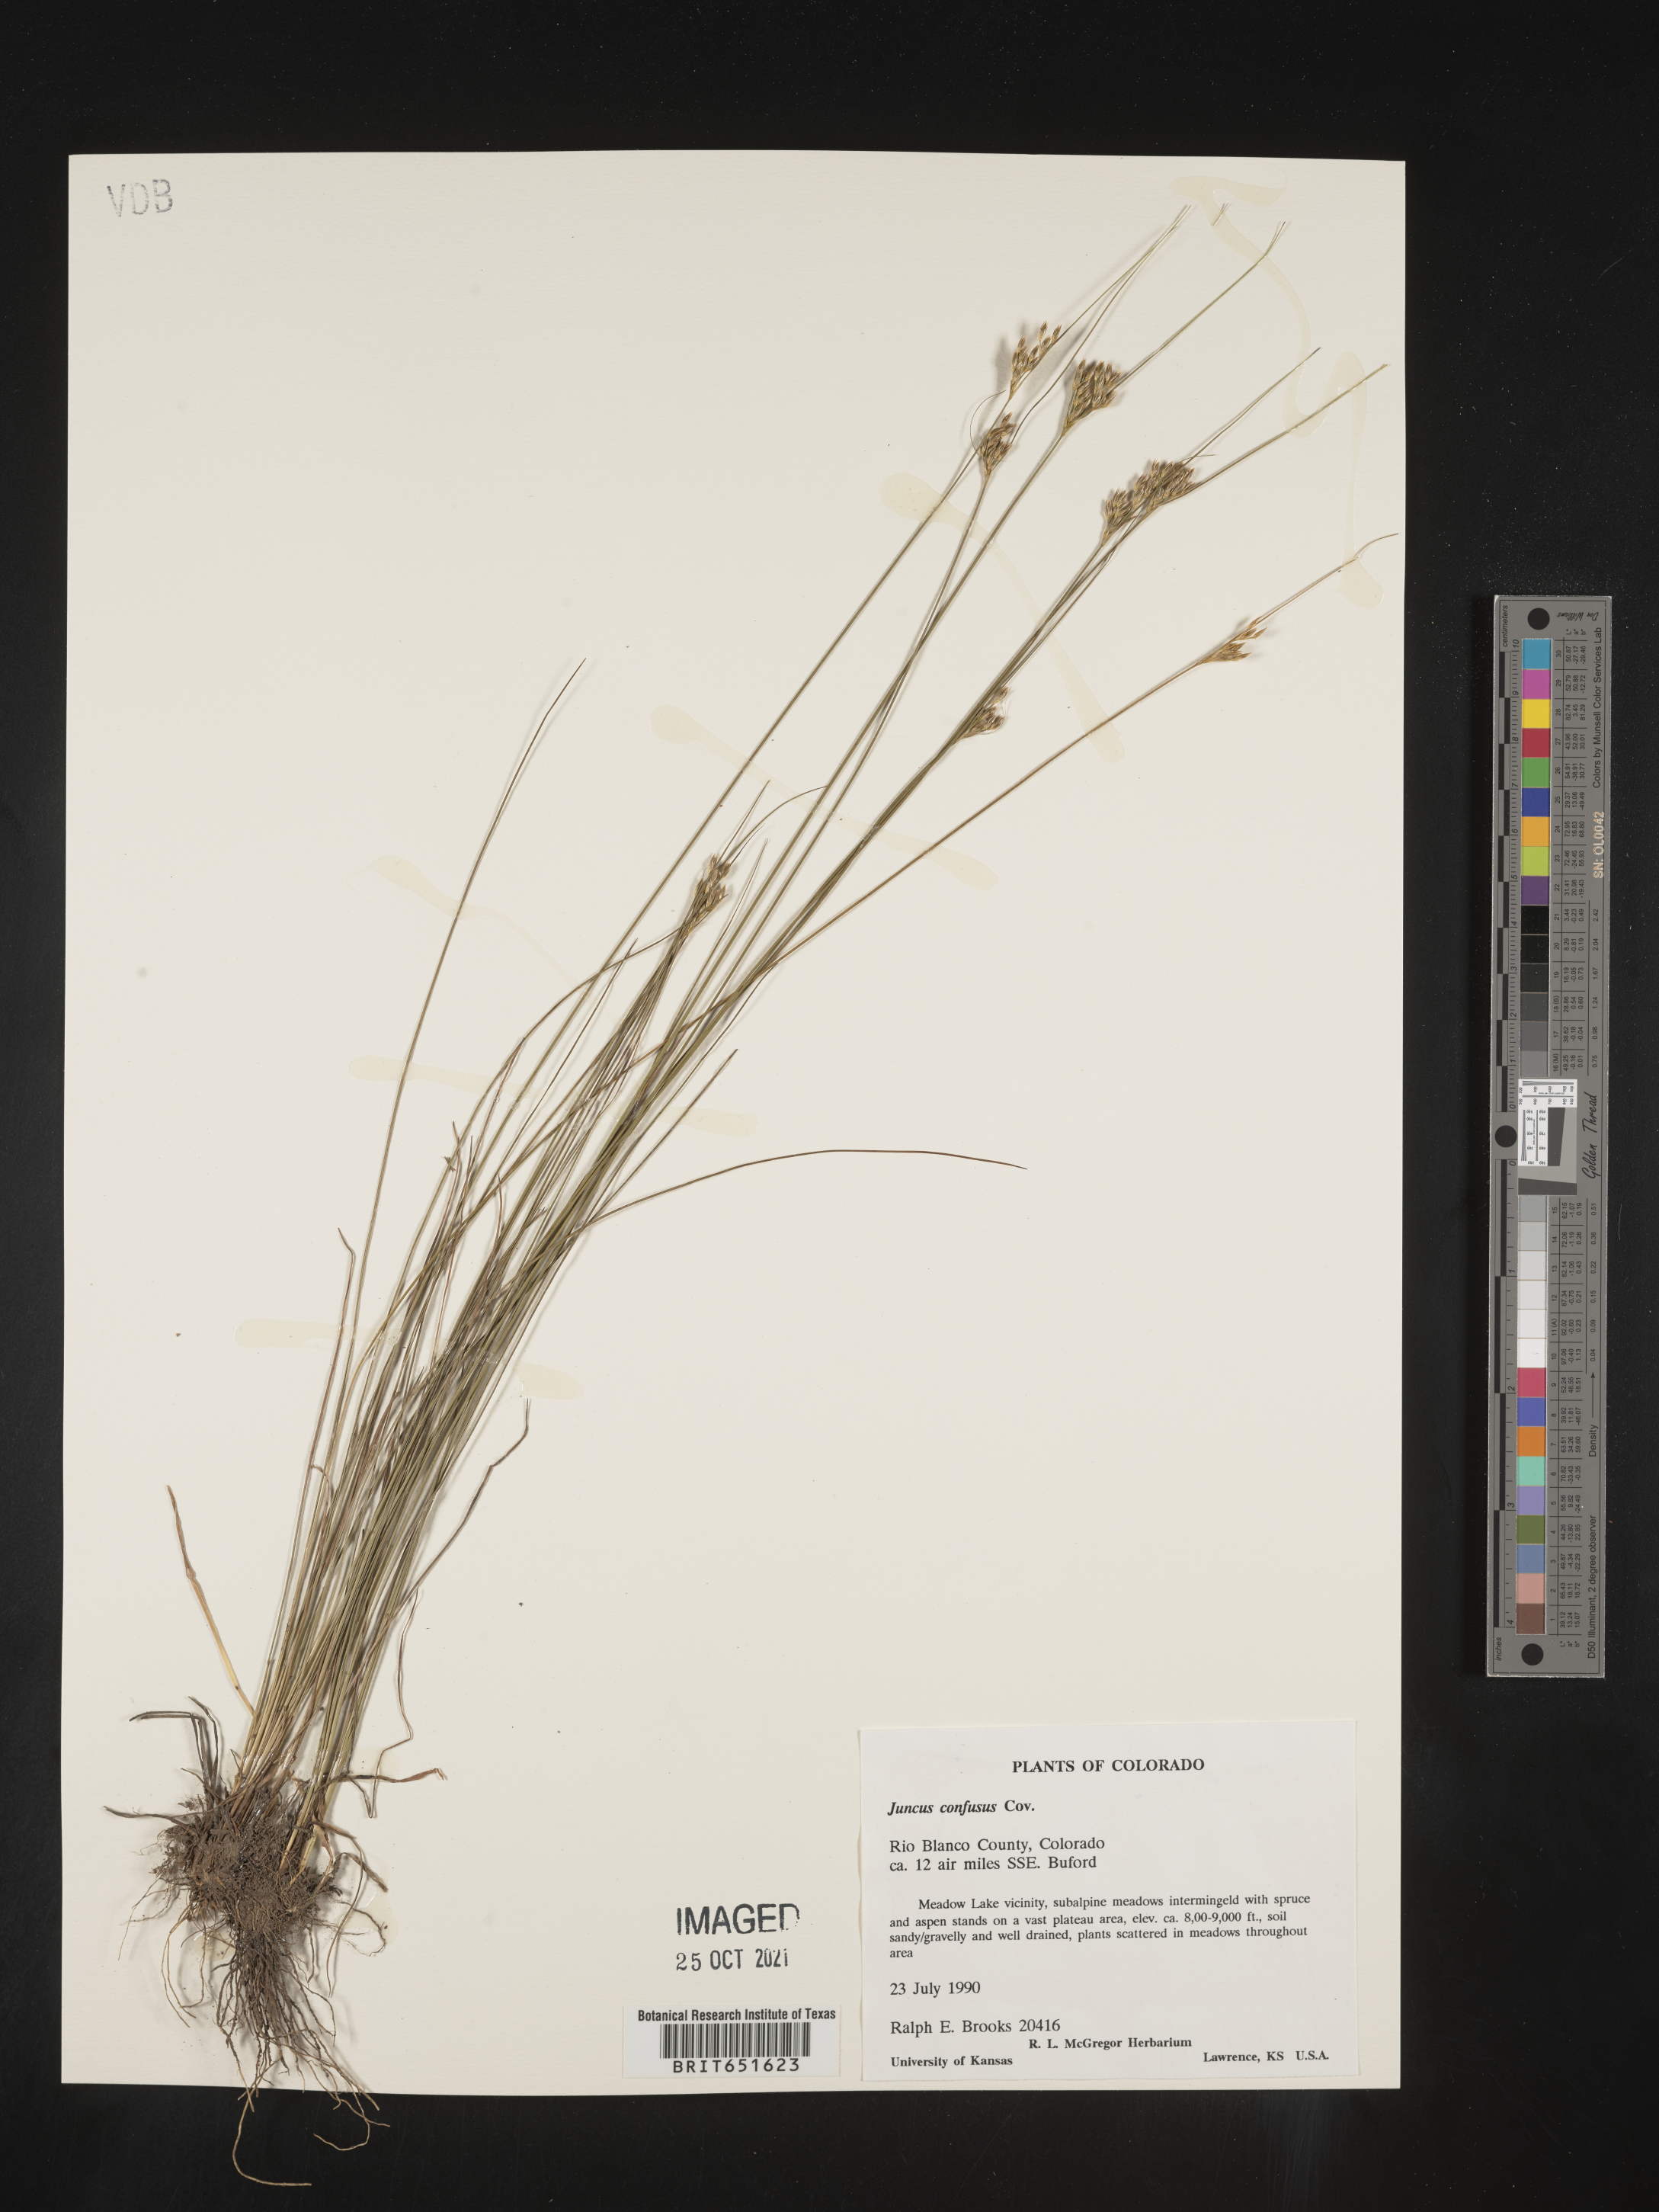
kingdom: Plantae
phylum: Tracheophyta
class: Liliopsida
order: Poales
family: Juncaceae
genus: Juncus
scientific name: Juncus confusus
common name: Colorado rush
